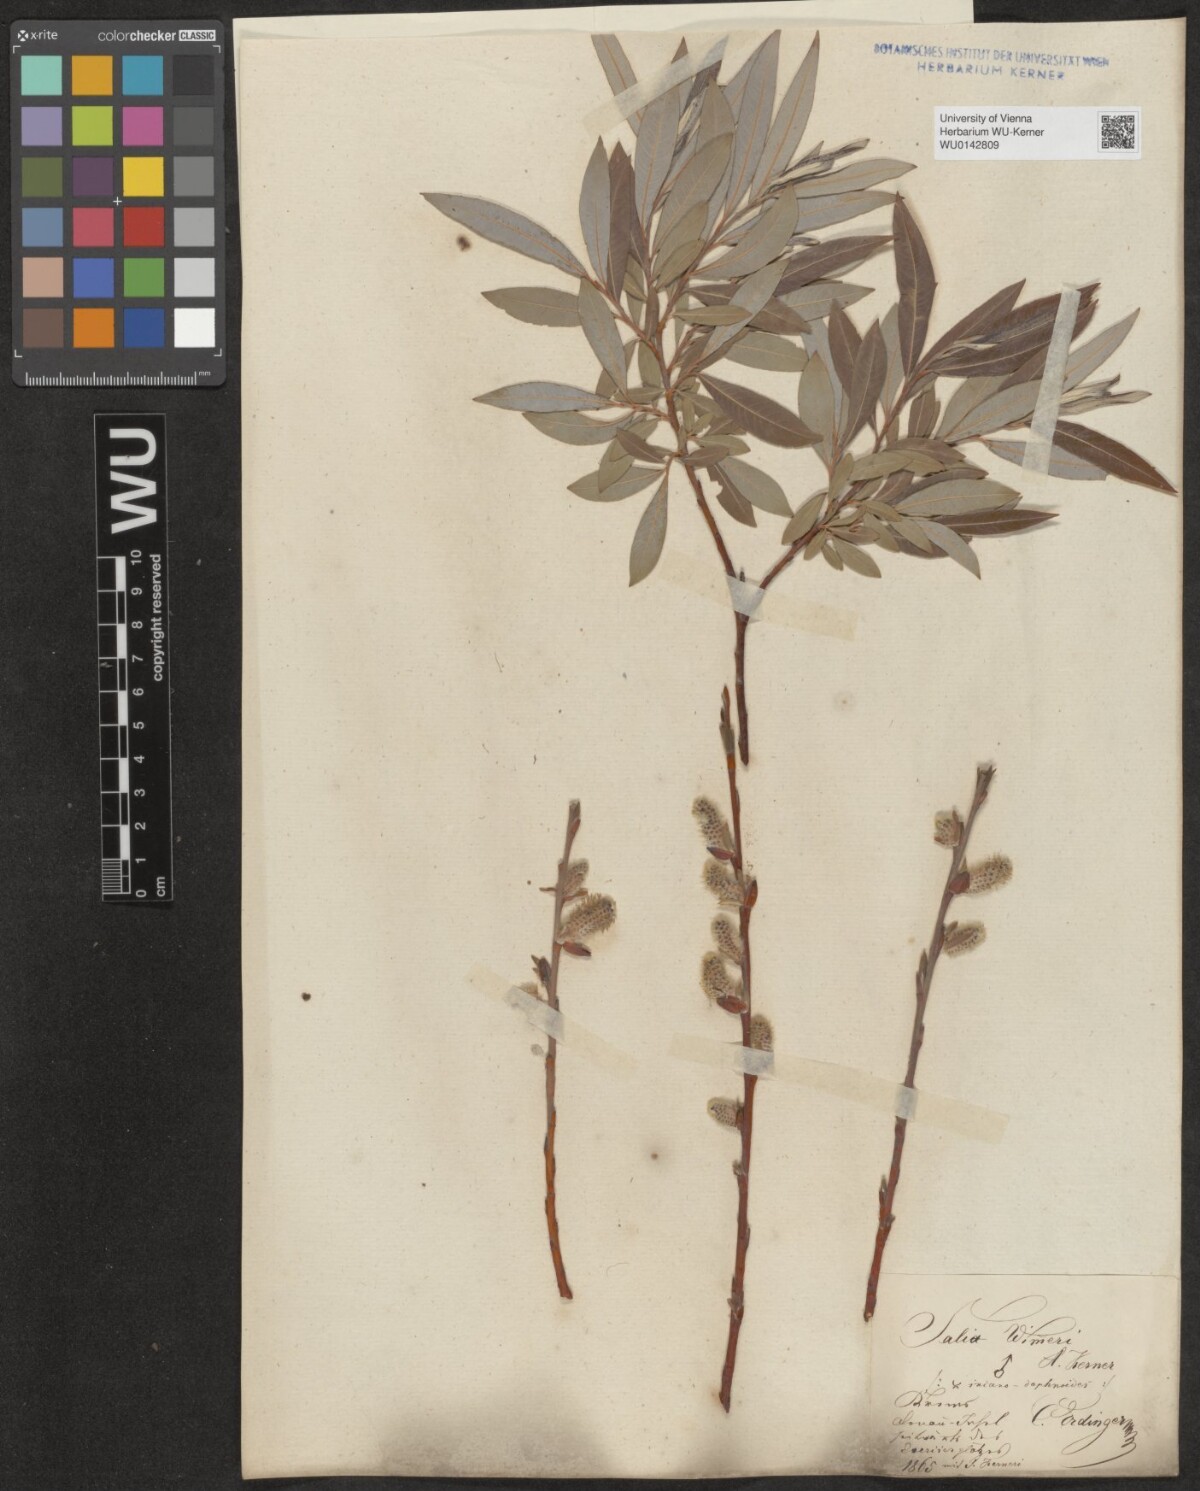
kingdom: Plantae
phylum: Tracheophyta
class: Magnoliopsida
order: Malpighiales
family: Salicaceae
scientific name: Salicaceae
